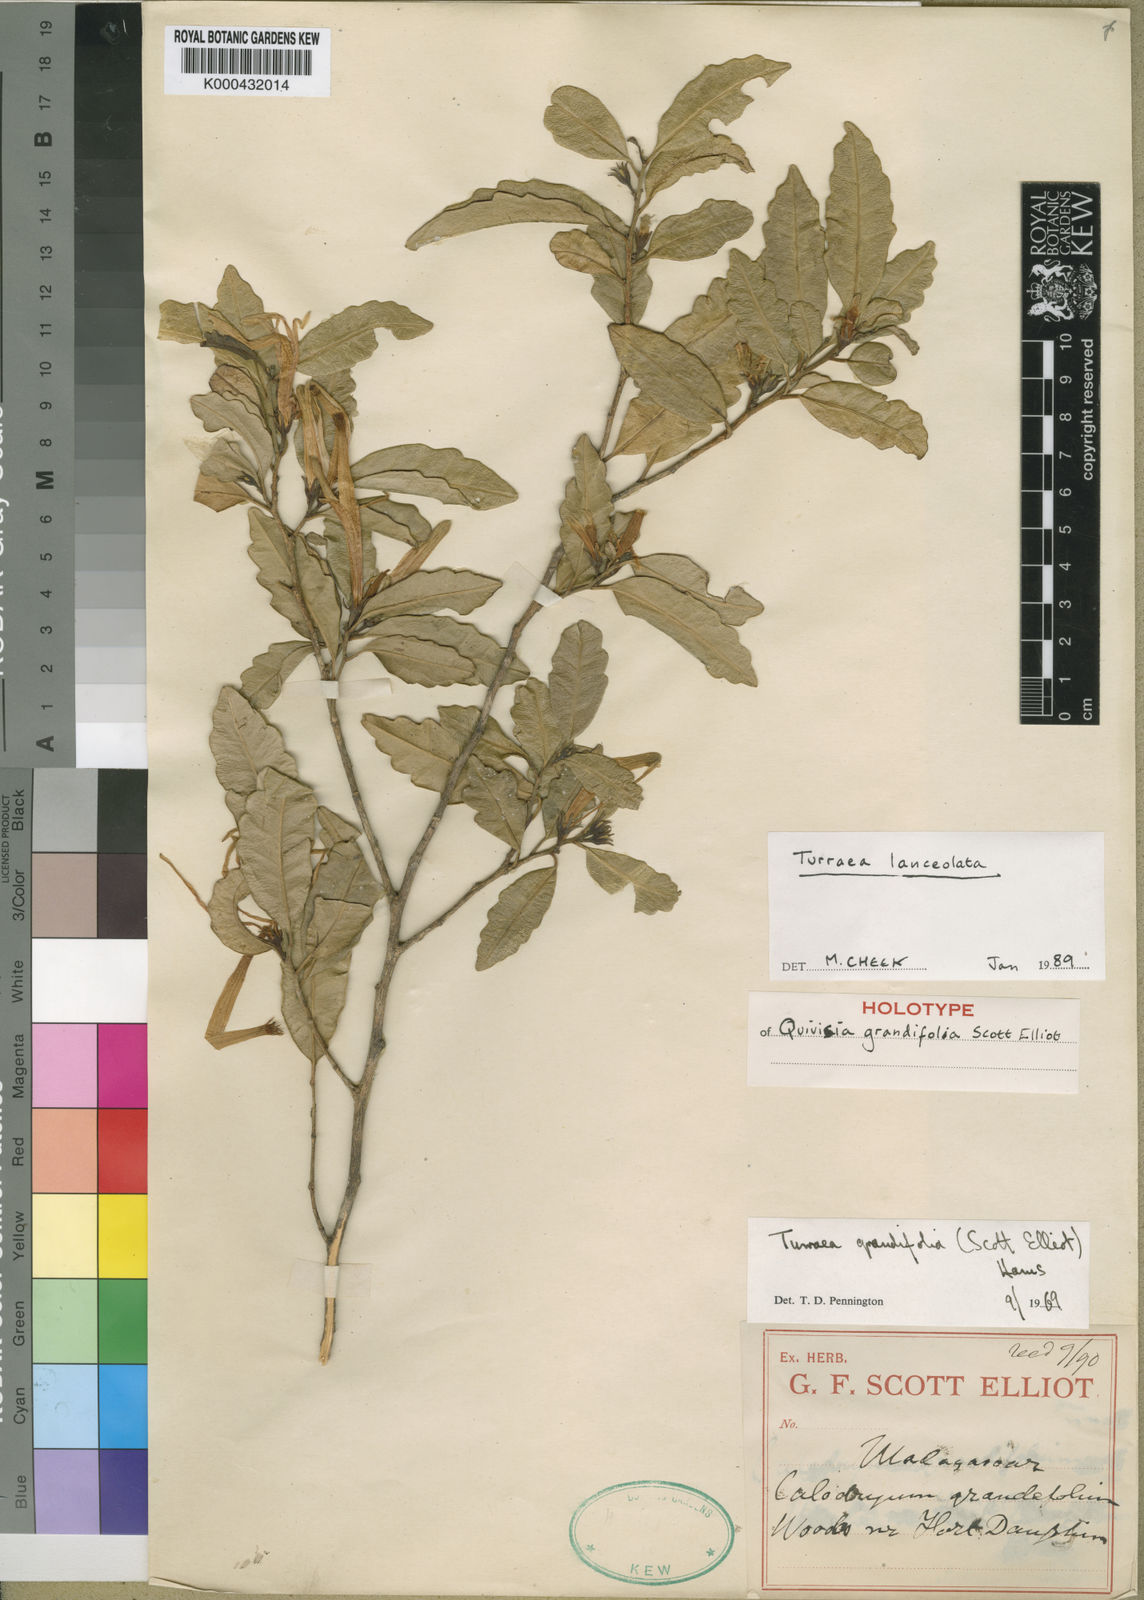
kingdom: Plantae
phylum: Tracheophyta
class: Magnoliopsida
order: Sapindales
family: Meliaceae
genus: Turraea
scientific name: Turraea lanceolata
